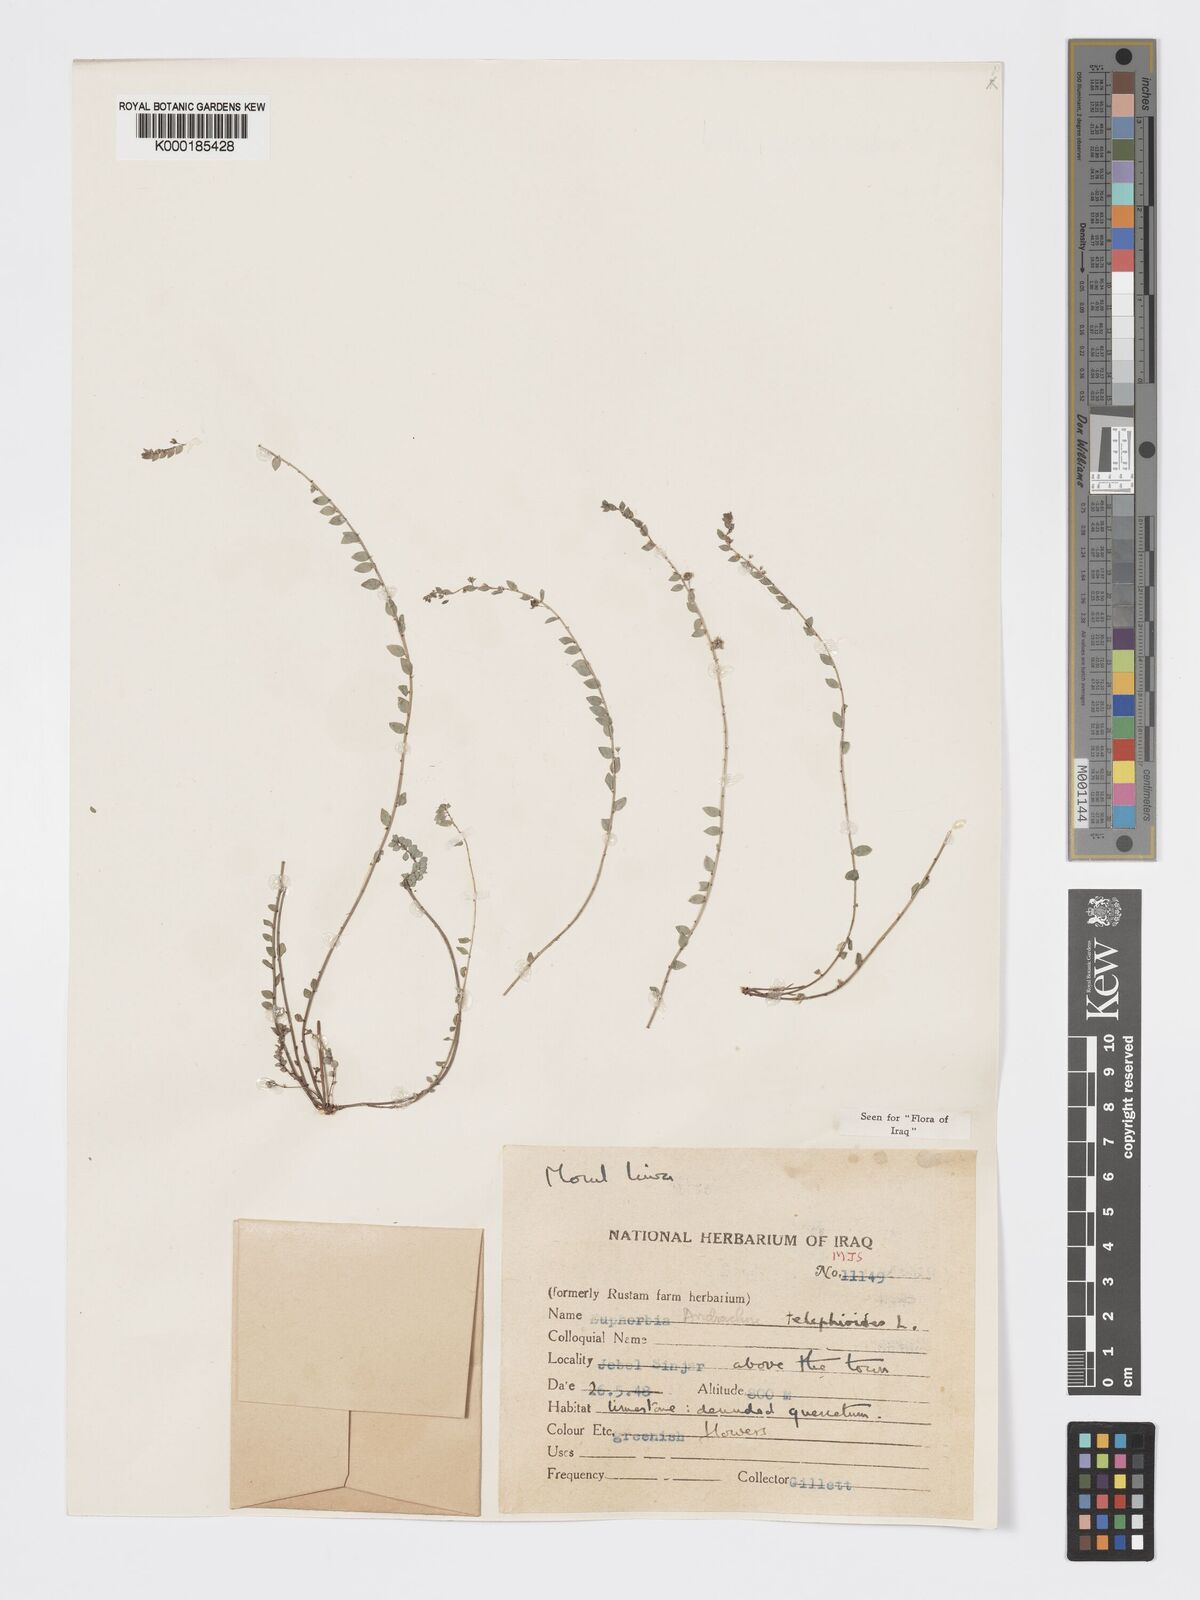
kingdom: Plantae
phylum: Tracheophyta
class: Magnoliopsida
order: Malpighiales
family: Phyllanthaceae
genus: Andrachne
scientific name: Andrachne telephioides
